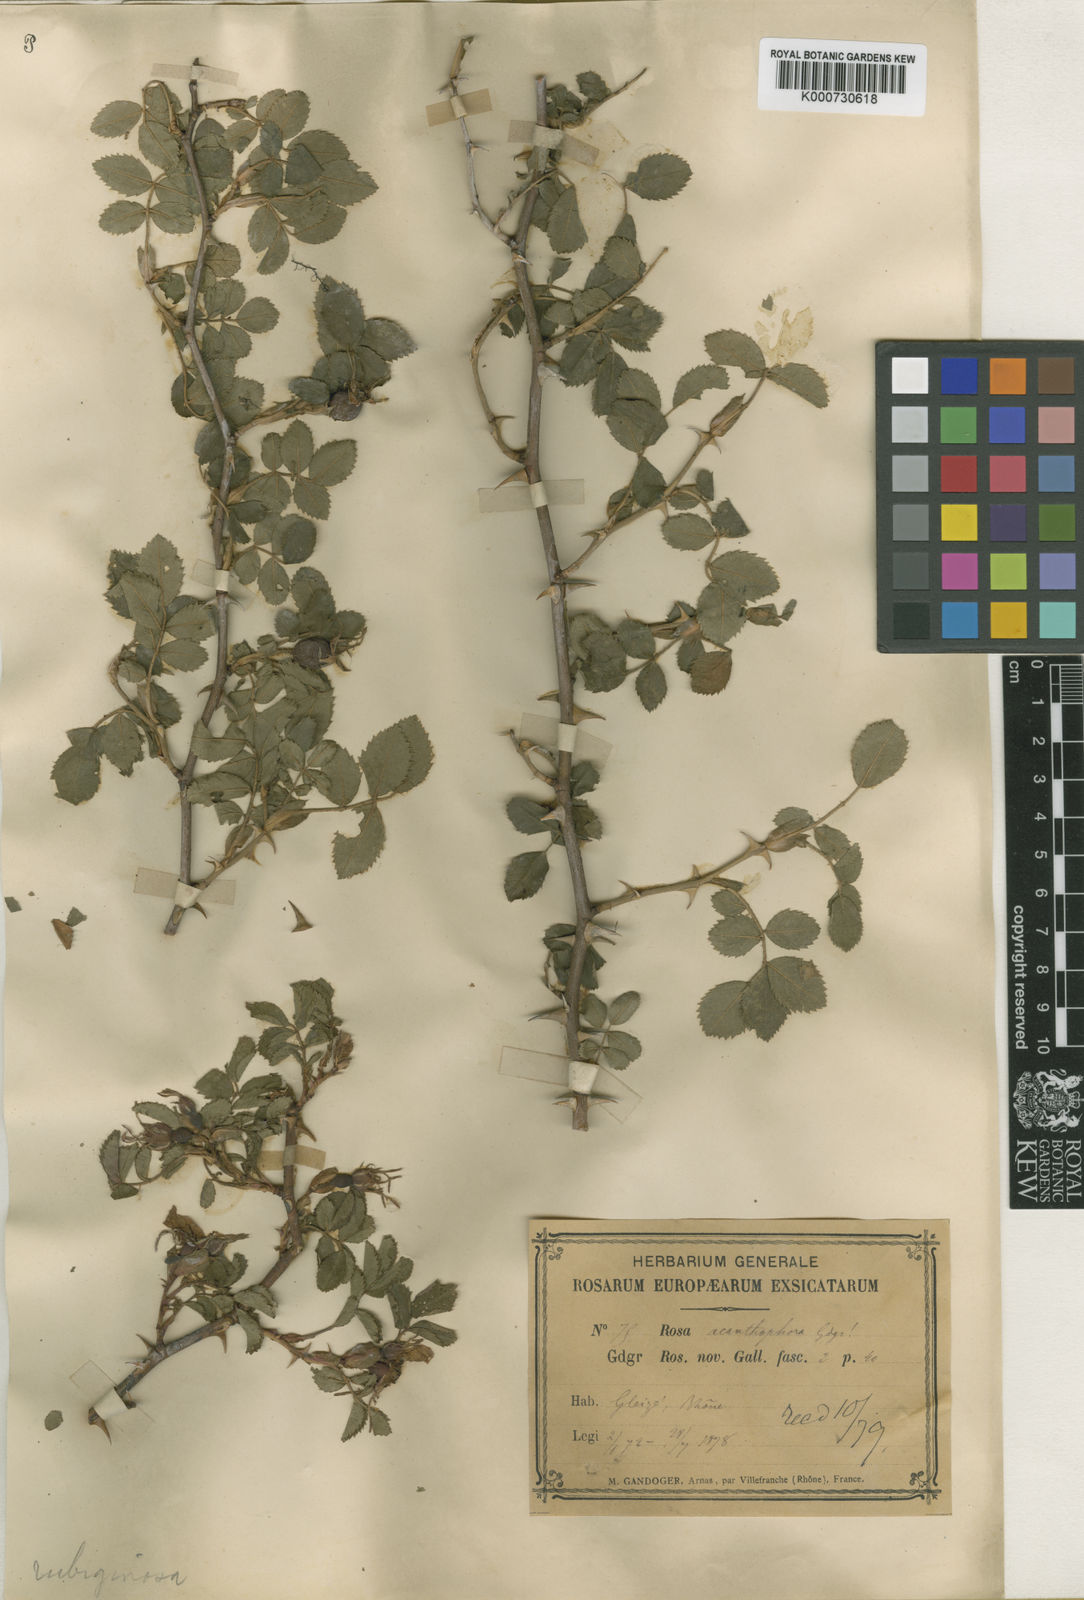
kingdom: Plantae
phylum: Tracheophyta
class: Magnoliopsida
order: Rosales
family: Rosaceae
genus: Rosa
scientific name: Rosa rubiginosa
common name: Sweet-briar
